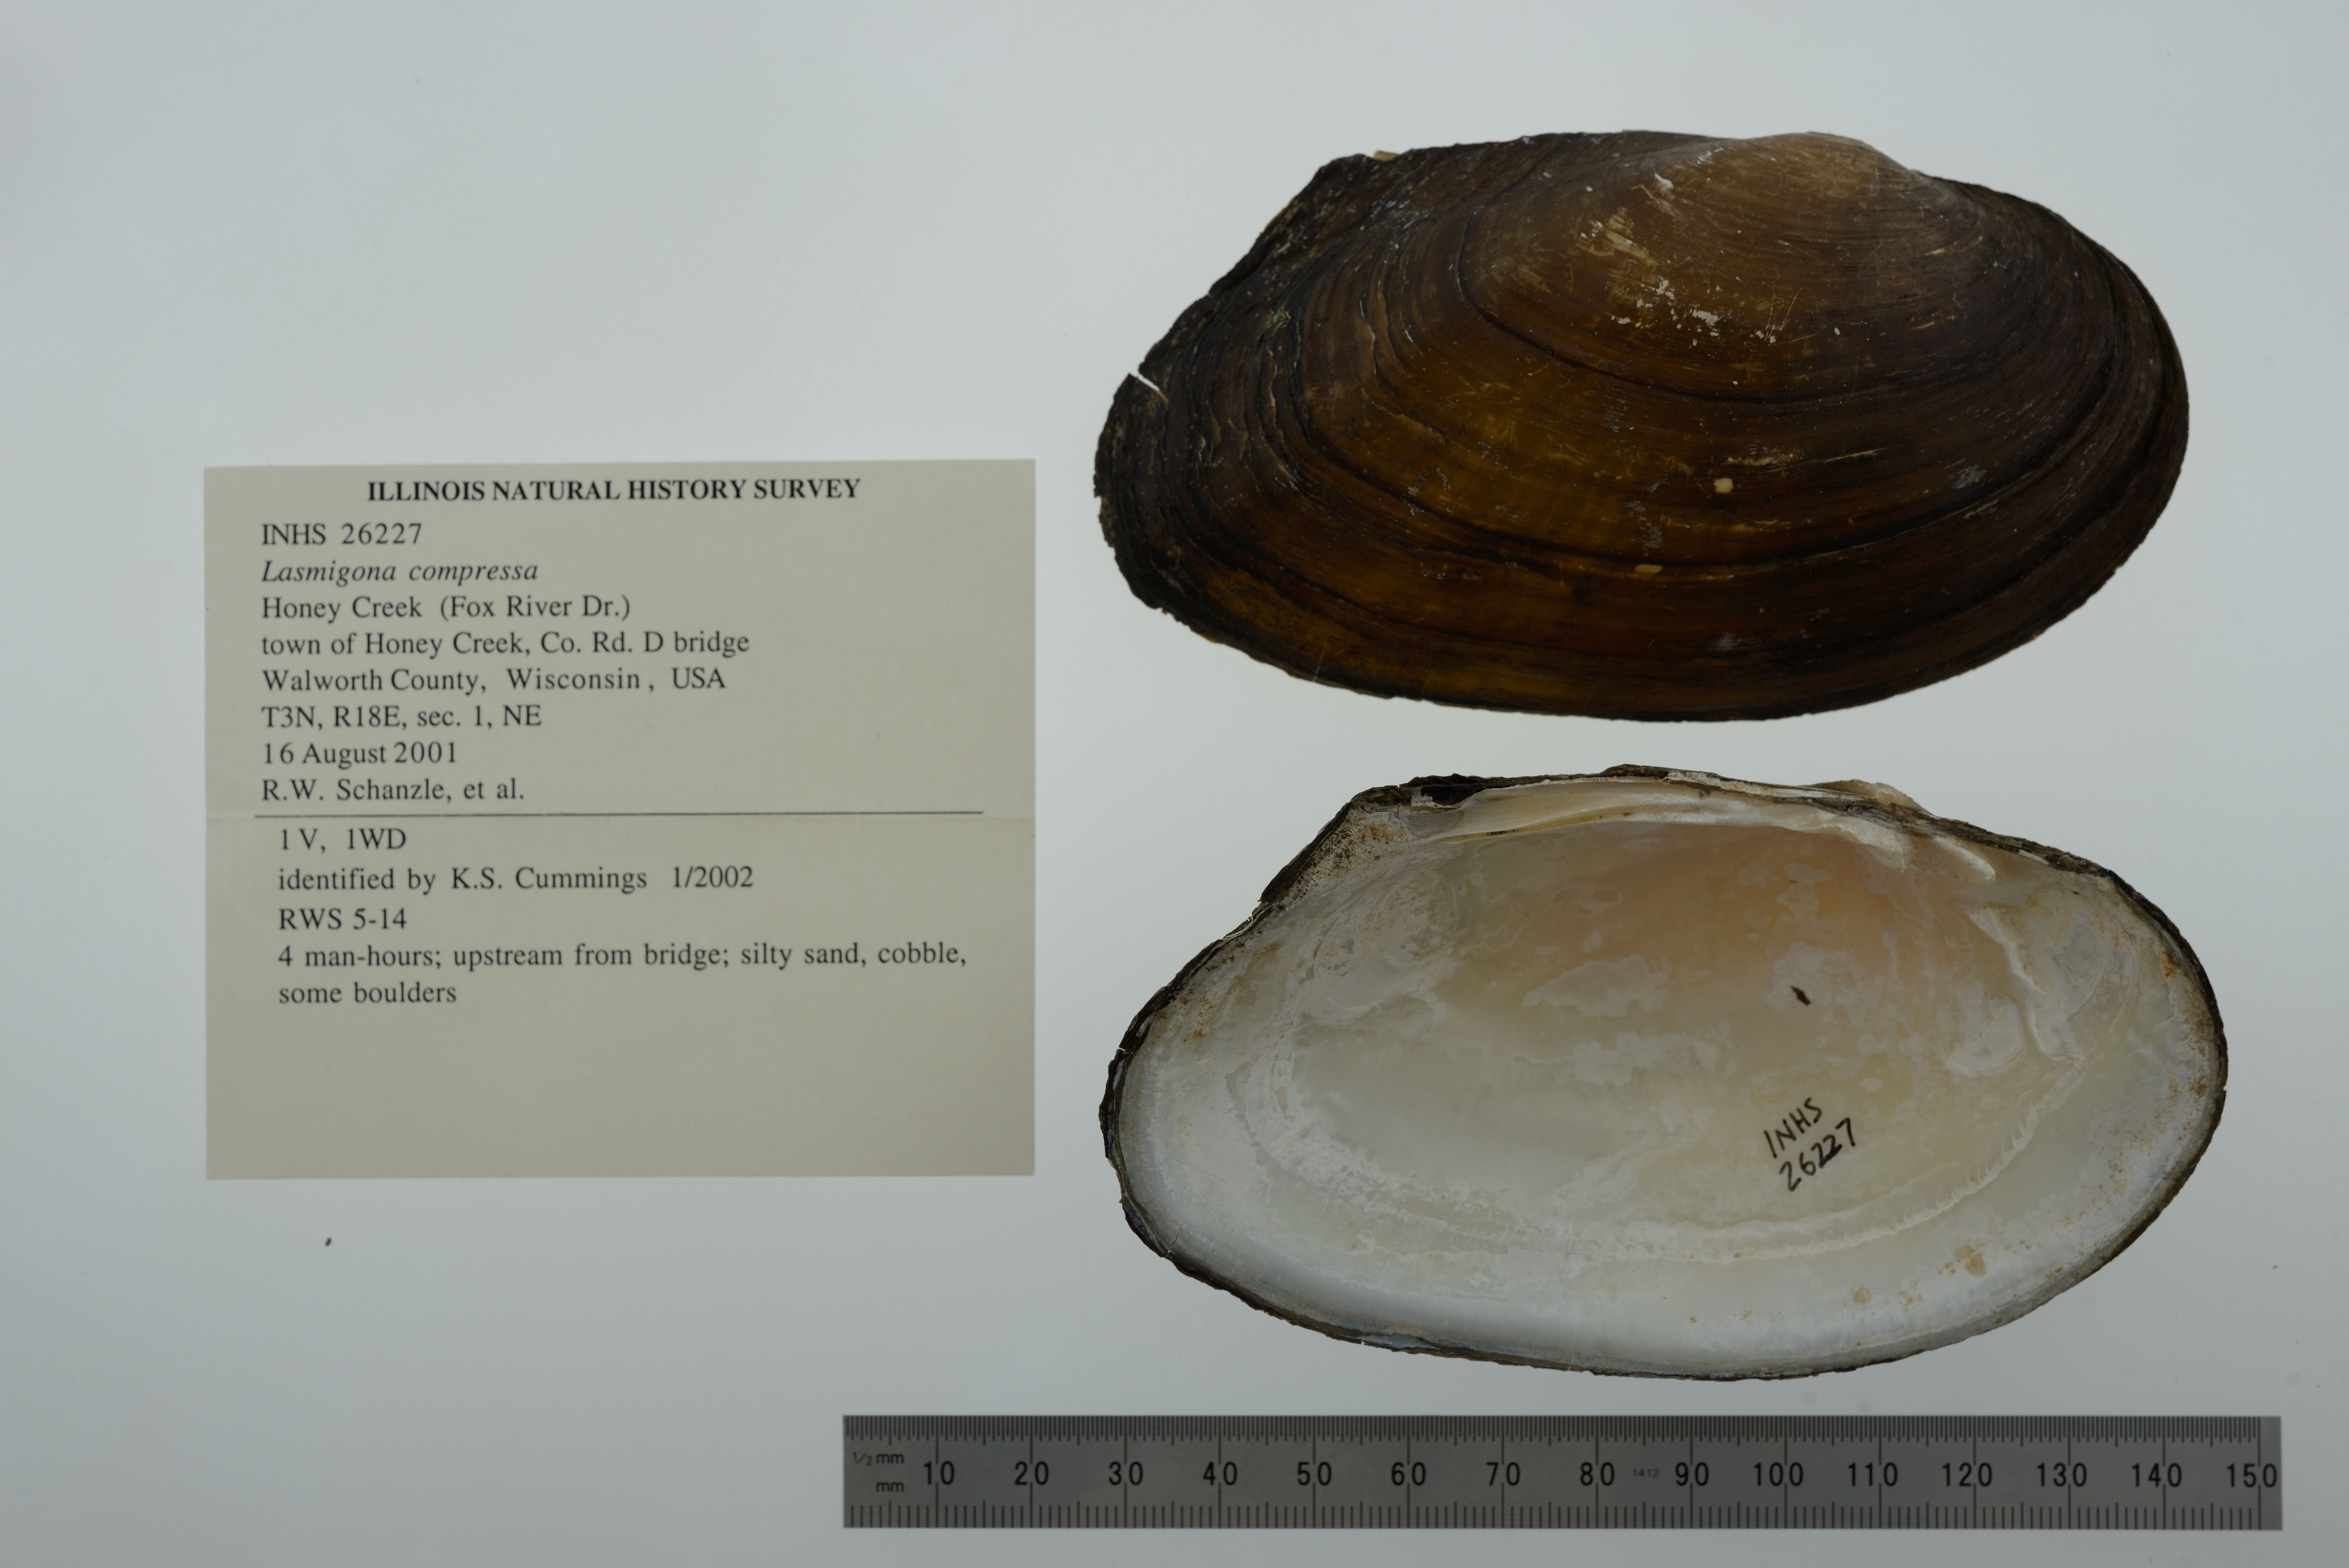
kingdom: Animalia
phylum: Mollusca
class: Bivalvia
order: Unionida
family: Unionidae
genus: Lasmigona
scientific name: Lasmigona compressa
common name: Creek heelsplitter
